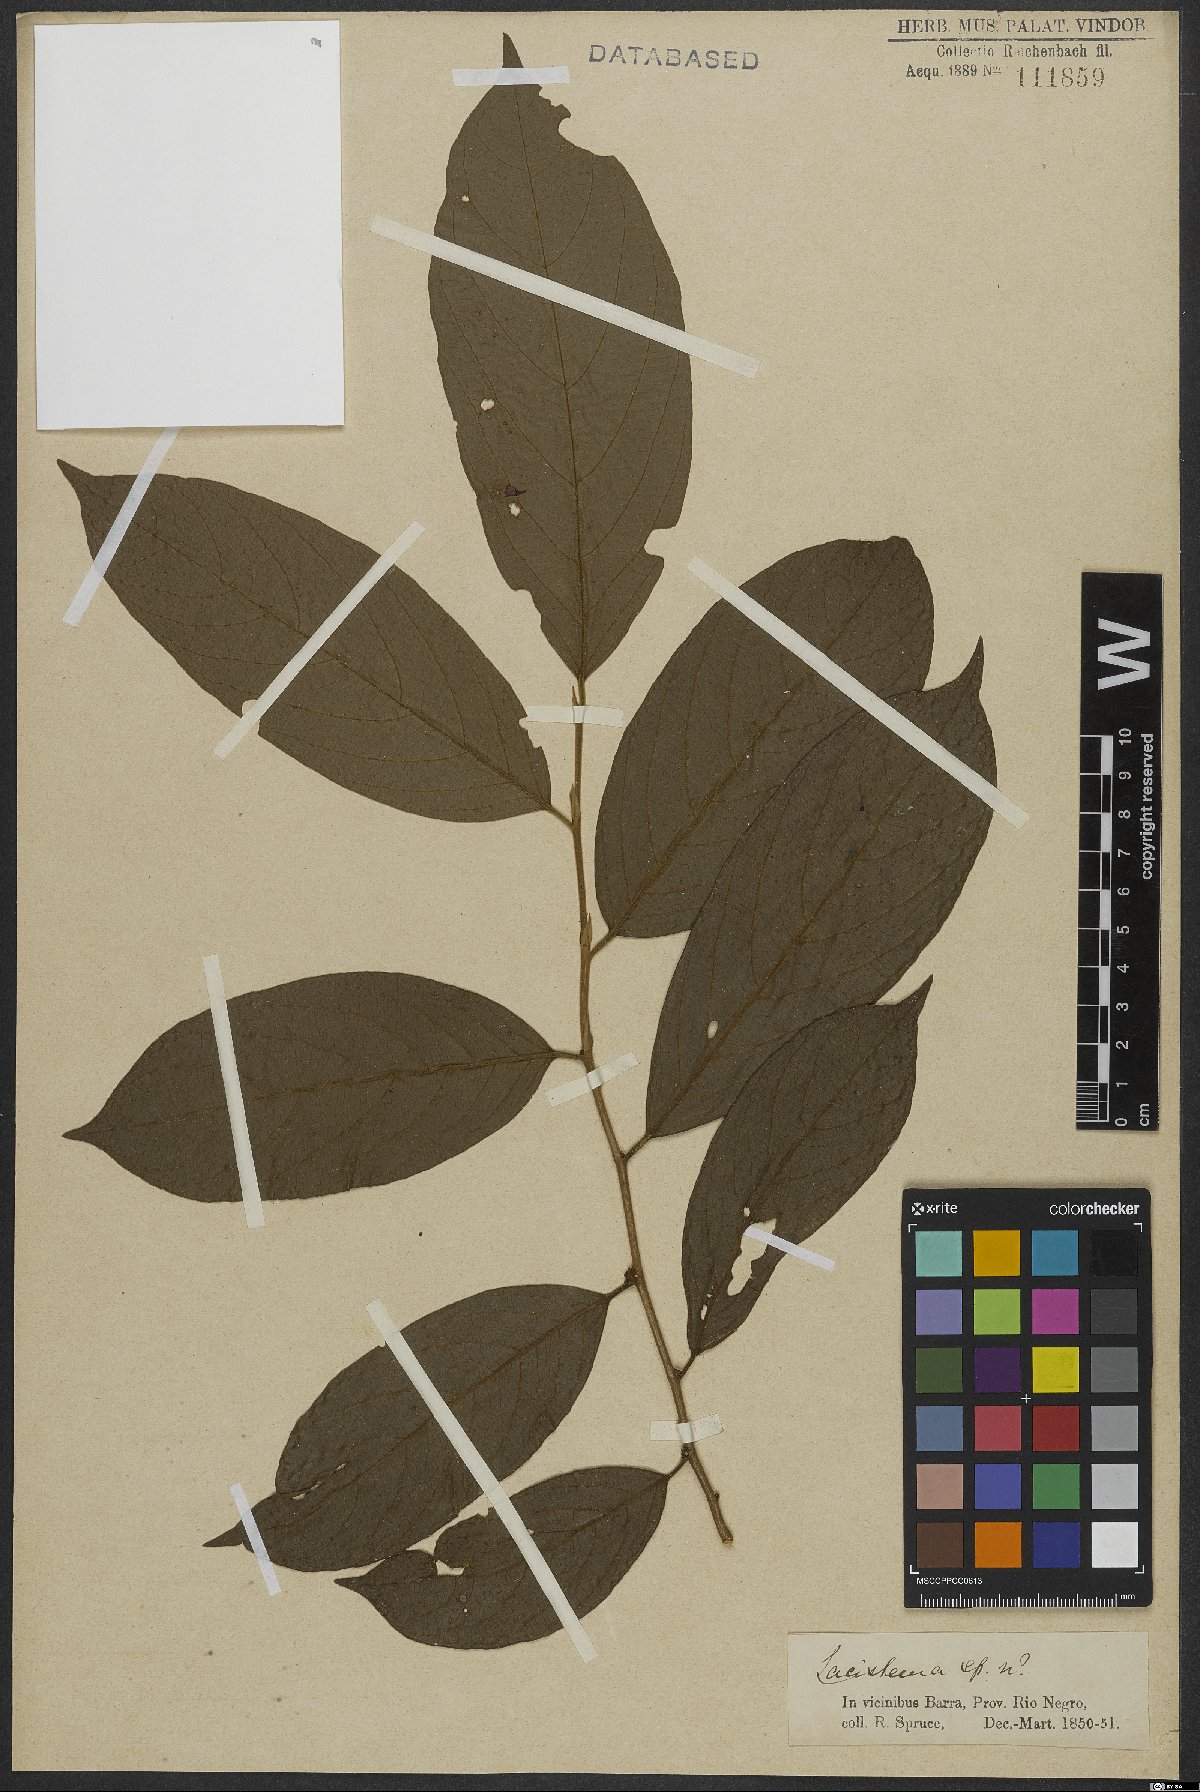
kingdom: Plantae
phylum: Tracheophyta
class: Magnoliopsida
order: Malpighiales
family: Lacistemataceae
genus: Lacistema
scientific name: Lacistema
